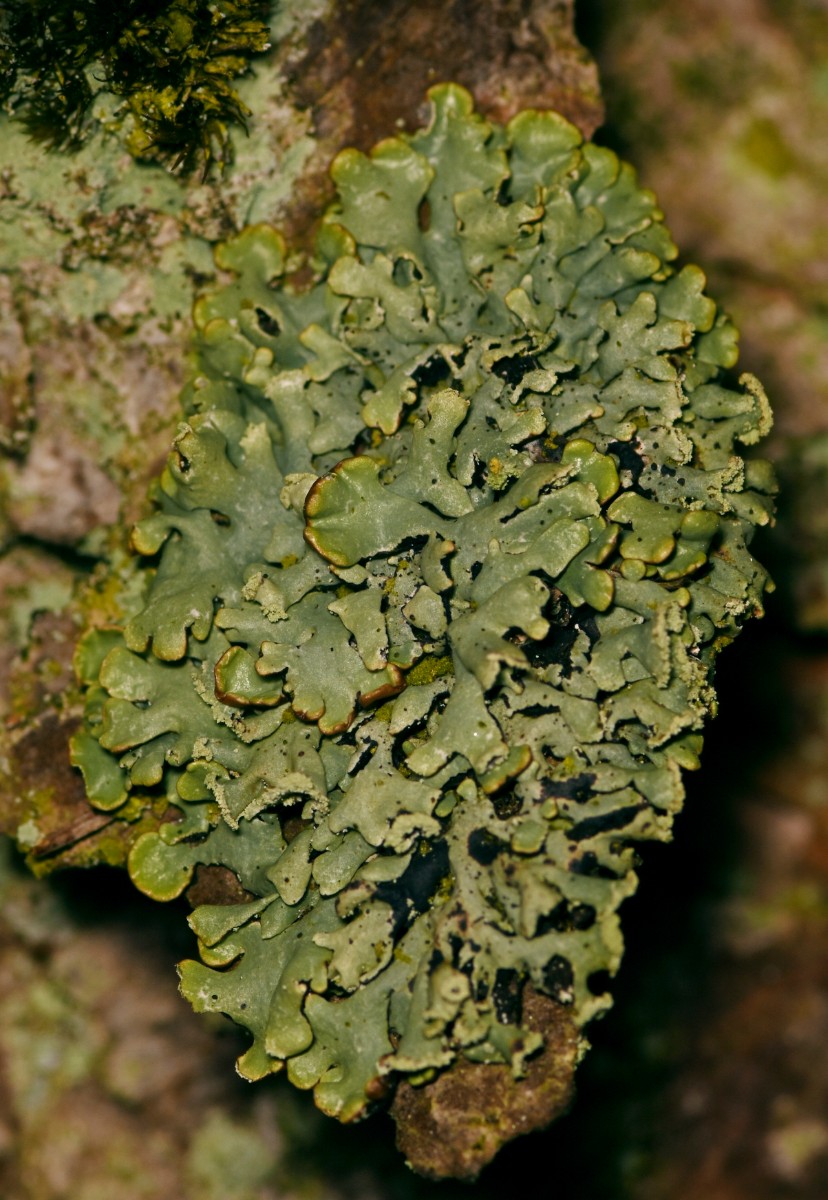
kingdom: Fungi
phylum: Ascomycota
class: Lecanoromycetes
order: Lecanorales
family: Parmeliaceae
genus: Hypogymnia
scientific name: Hypogymnia physodes
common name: almindelig kvistlav
